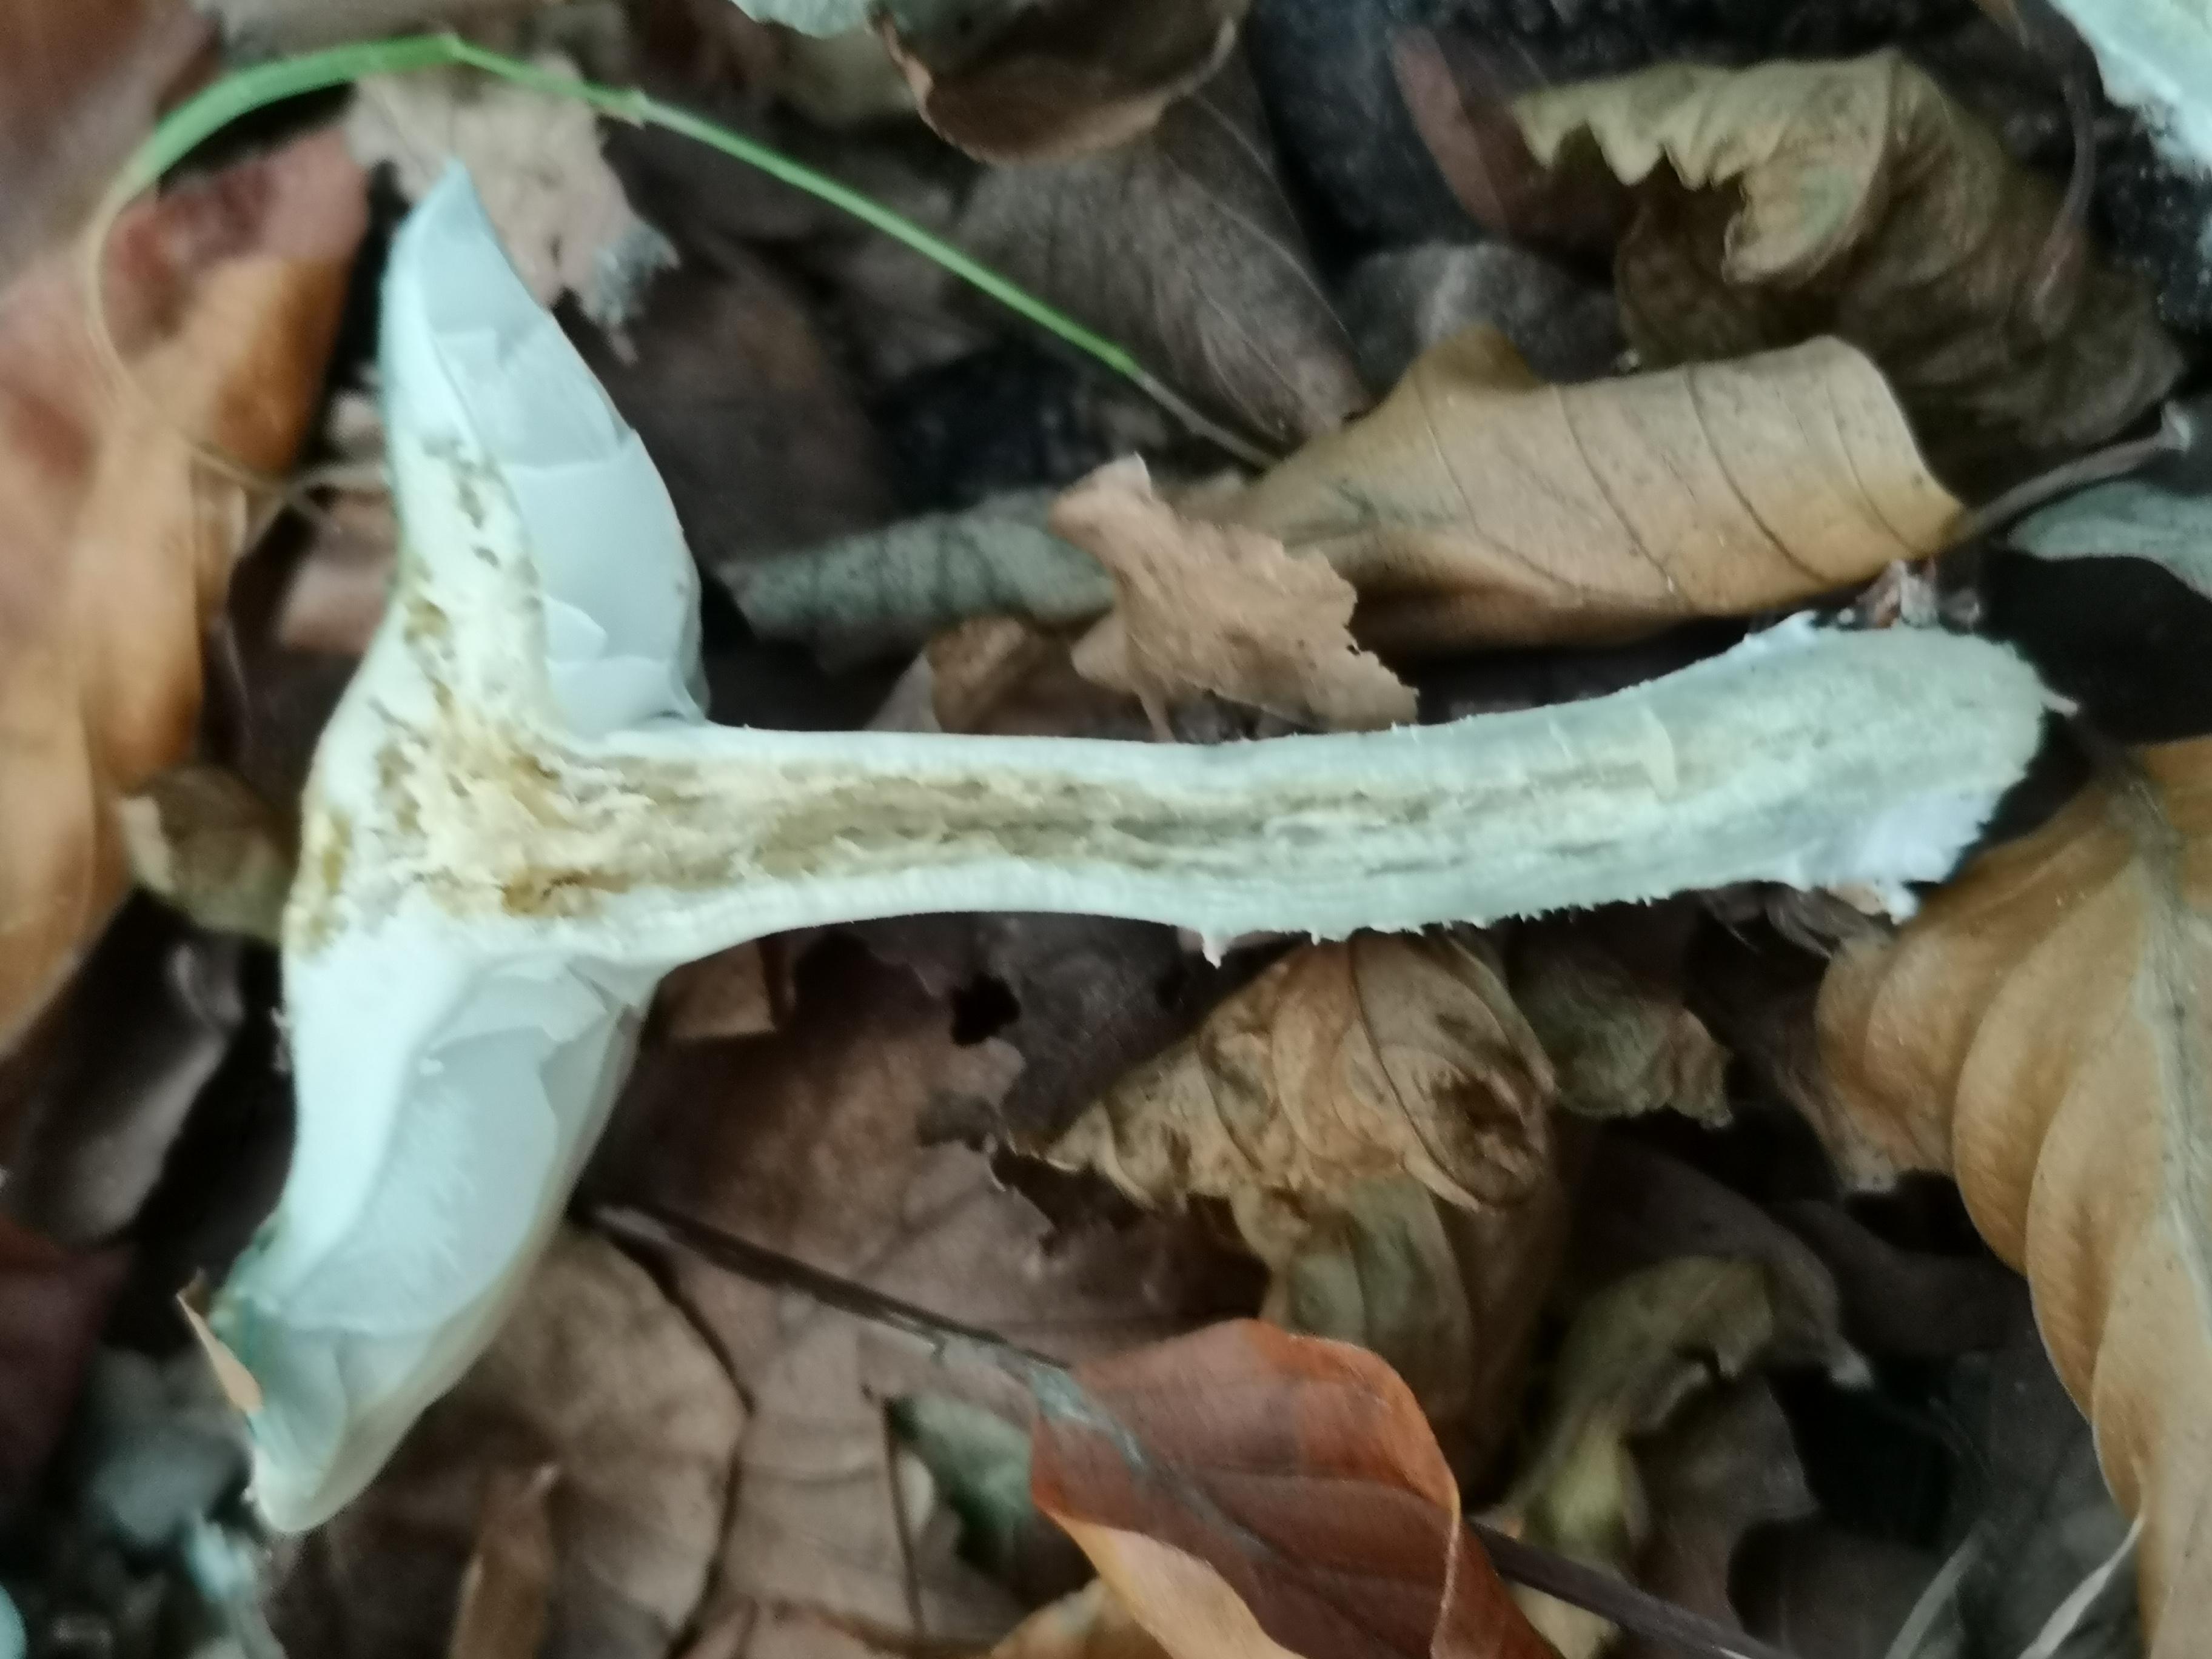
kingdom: Fungi
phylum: Basidiomycota
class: Agaricomycetes
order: Agaricales
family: Strophariaceae
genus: Stropharia
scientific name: Stropharia cyanea
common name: blågrøn bredblad
